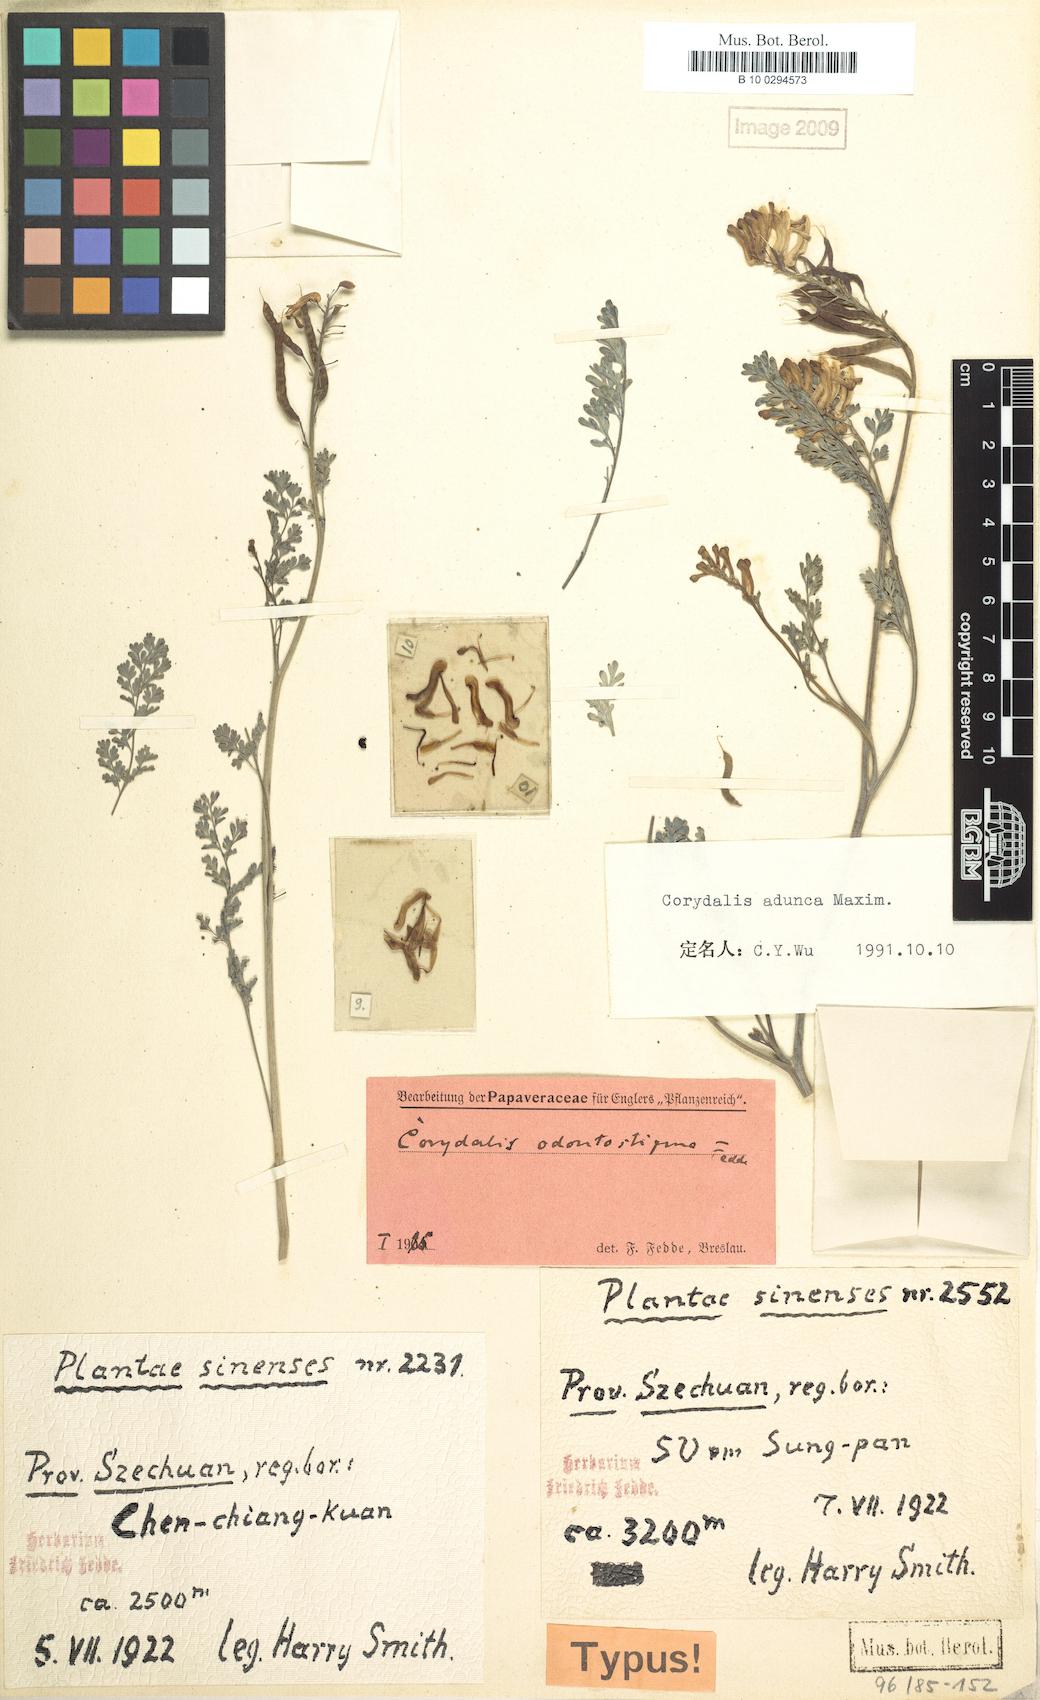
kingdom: Plantae
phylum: Tracheophyta
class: Magnoliopsida
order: Ranunculales
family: Papaveraceae
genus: Corydalis
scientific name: Corydalis adunca
